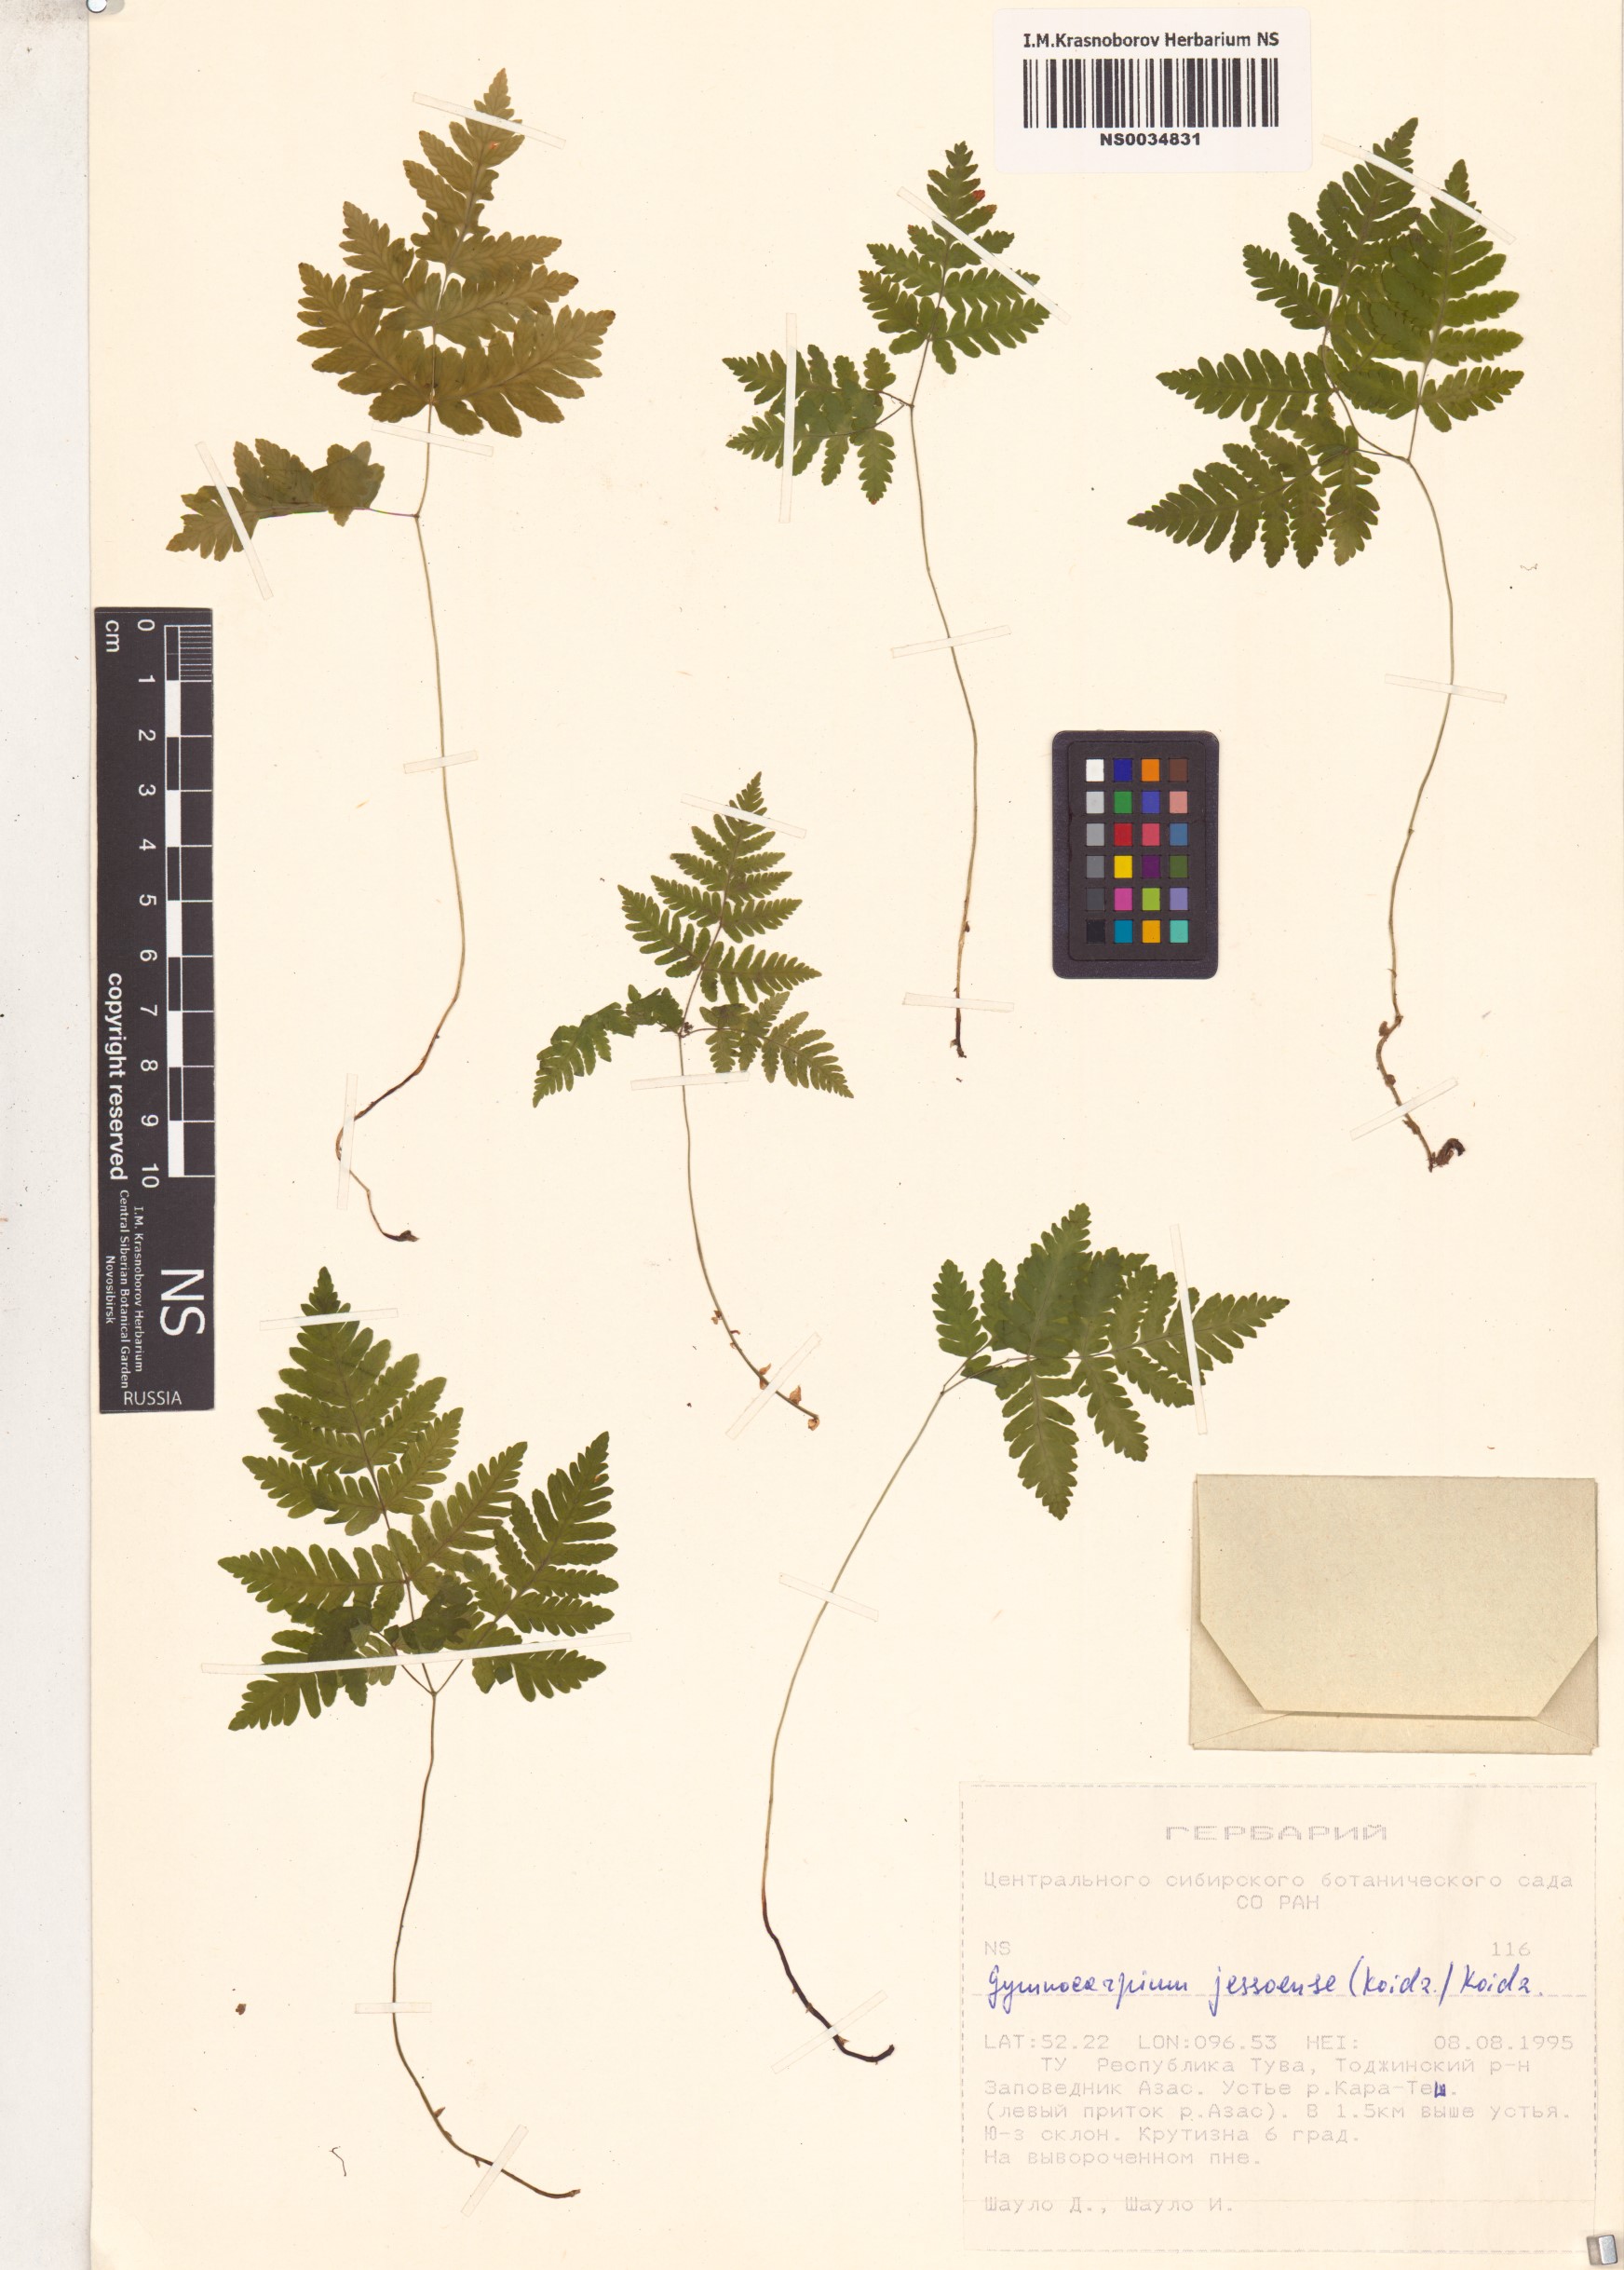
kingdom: Plantae
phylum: Tracheophyta
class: Polypodiopsida
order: Polypodiales
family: Cystopteridaceae
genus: Gymnocarpium
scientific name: Gymnocarpium jessoense
